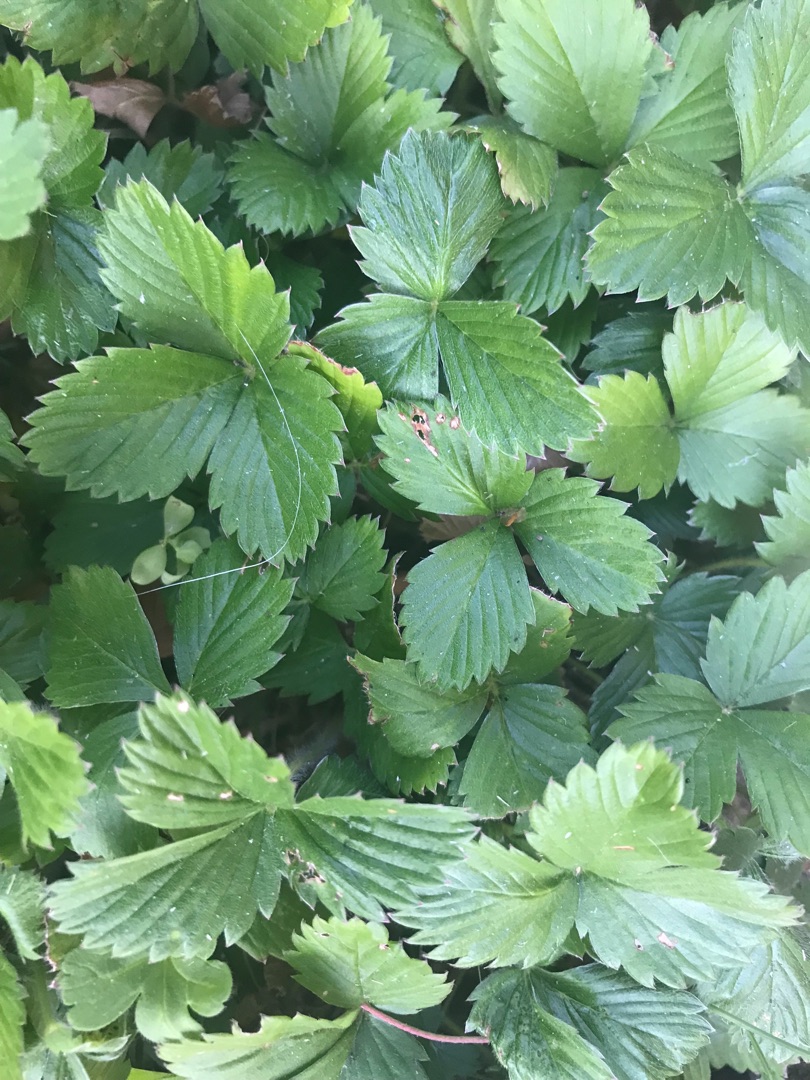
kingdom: Plantae
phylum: Tracheophyta
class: Magnoliopsida
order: Rosales
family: Rosaceae
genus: Fragaria
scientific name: Fragaria vesca
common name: Skov-jordbær
